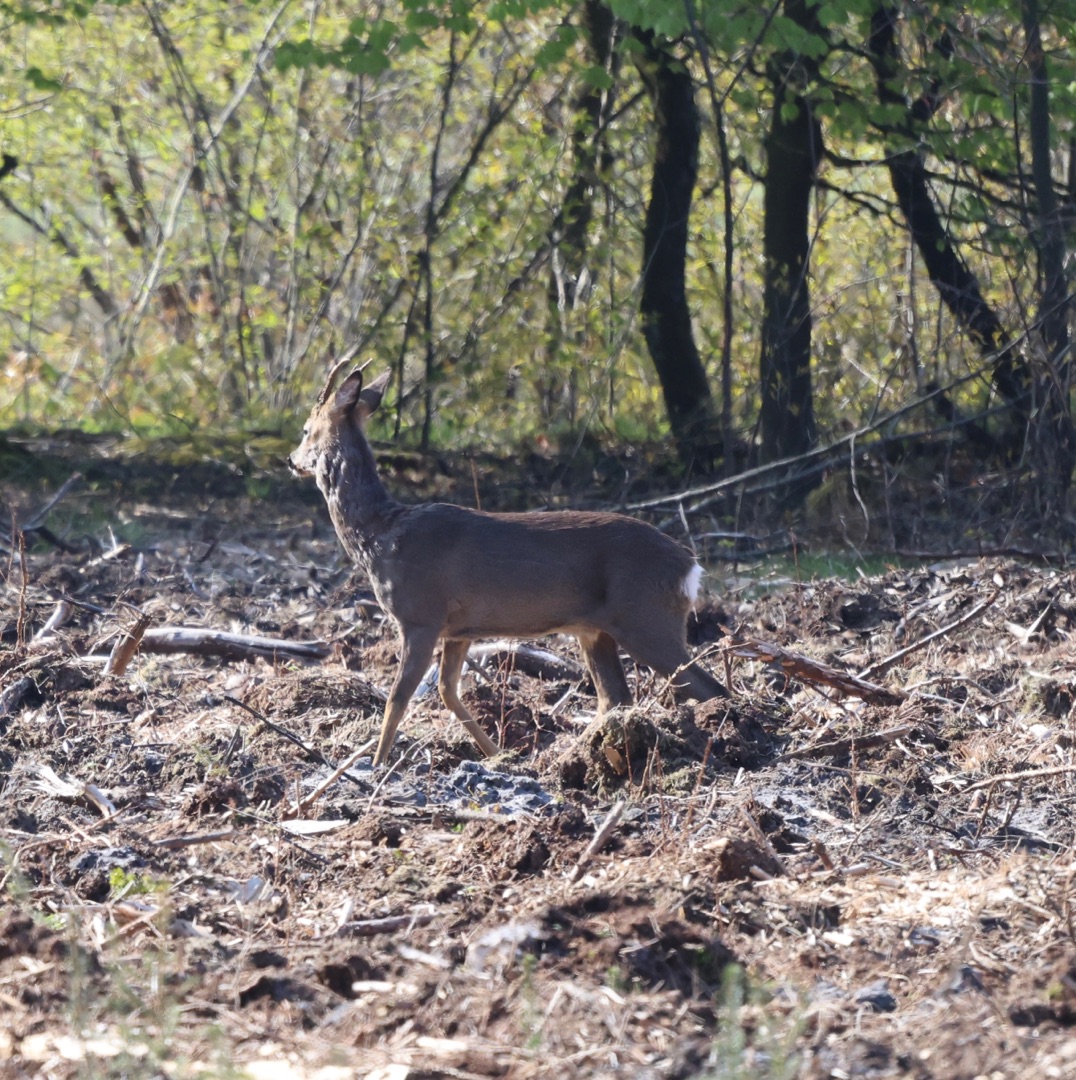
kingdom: Animalia
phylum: Chordata
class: Mammalia
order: Artiodactyla
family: Cervidae
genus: Capreolus
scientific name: Capreolus capreolus
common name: Rådyr
